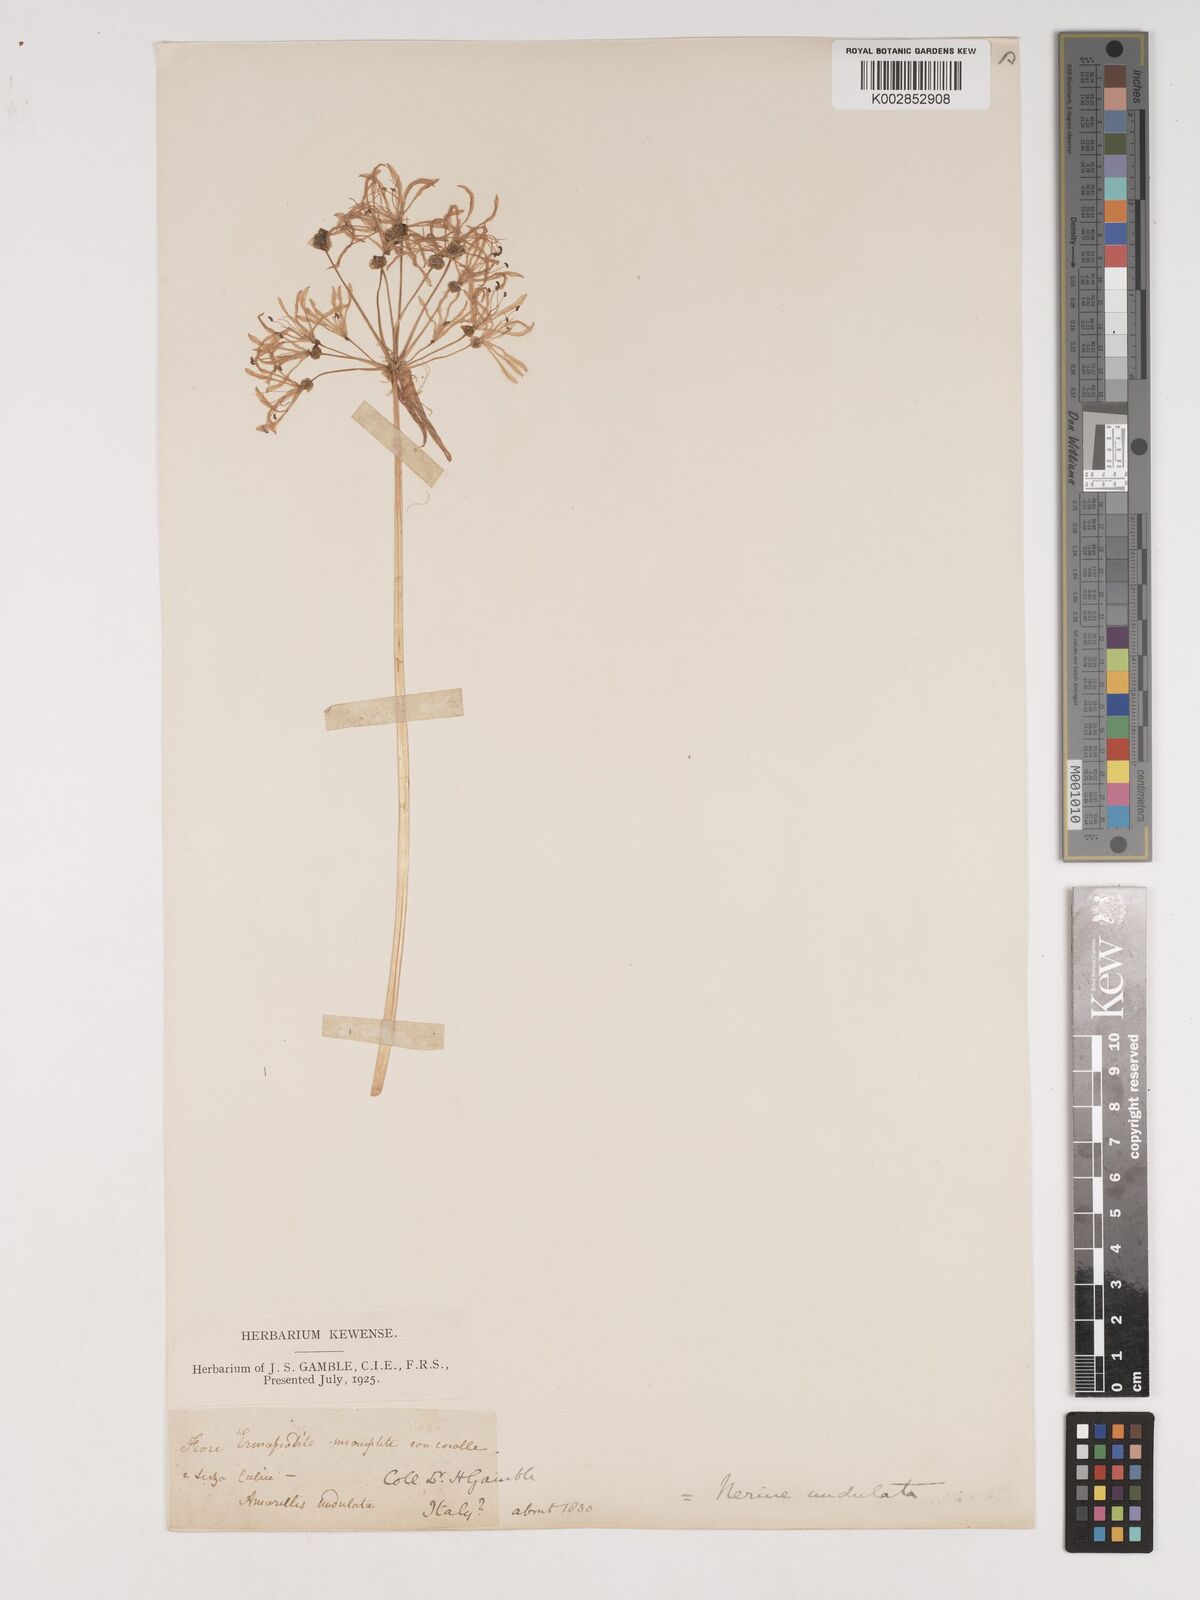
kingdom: Plantae
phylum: Tracheophyta
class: Liliopsida
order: Asparagales
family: Amaryllidaceae
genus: Nerine
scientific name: Nerine undulata
